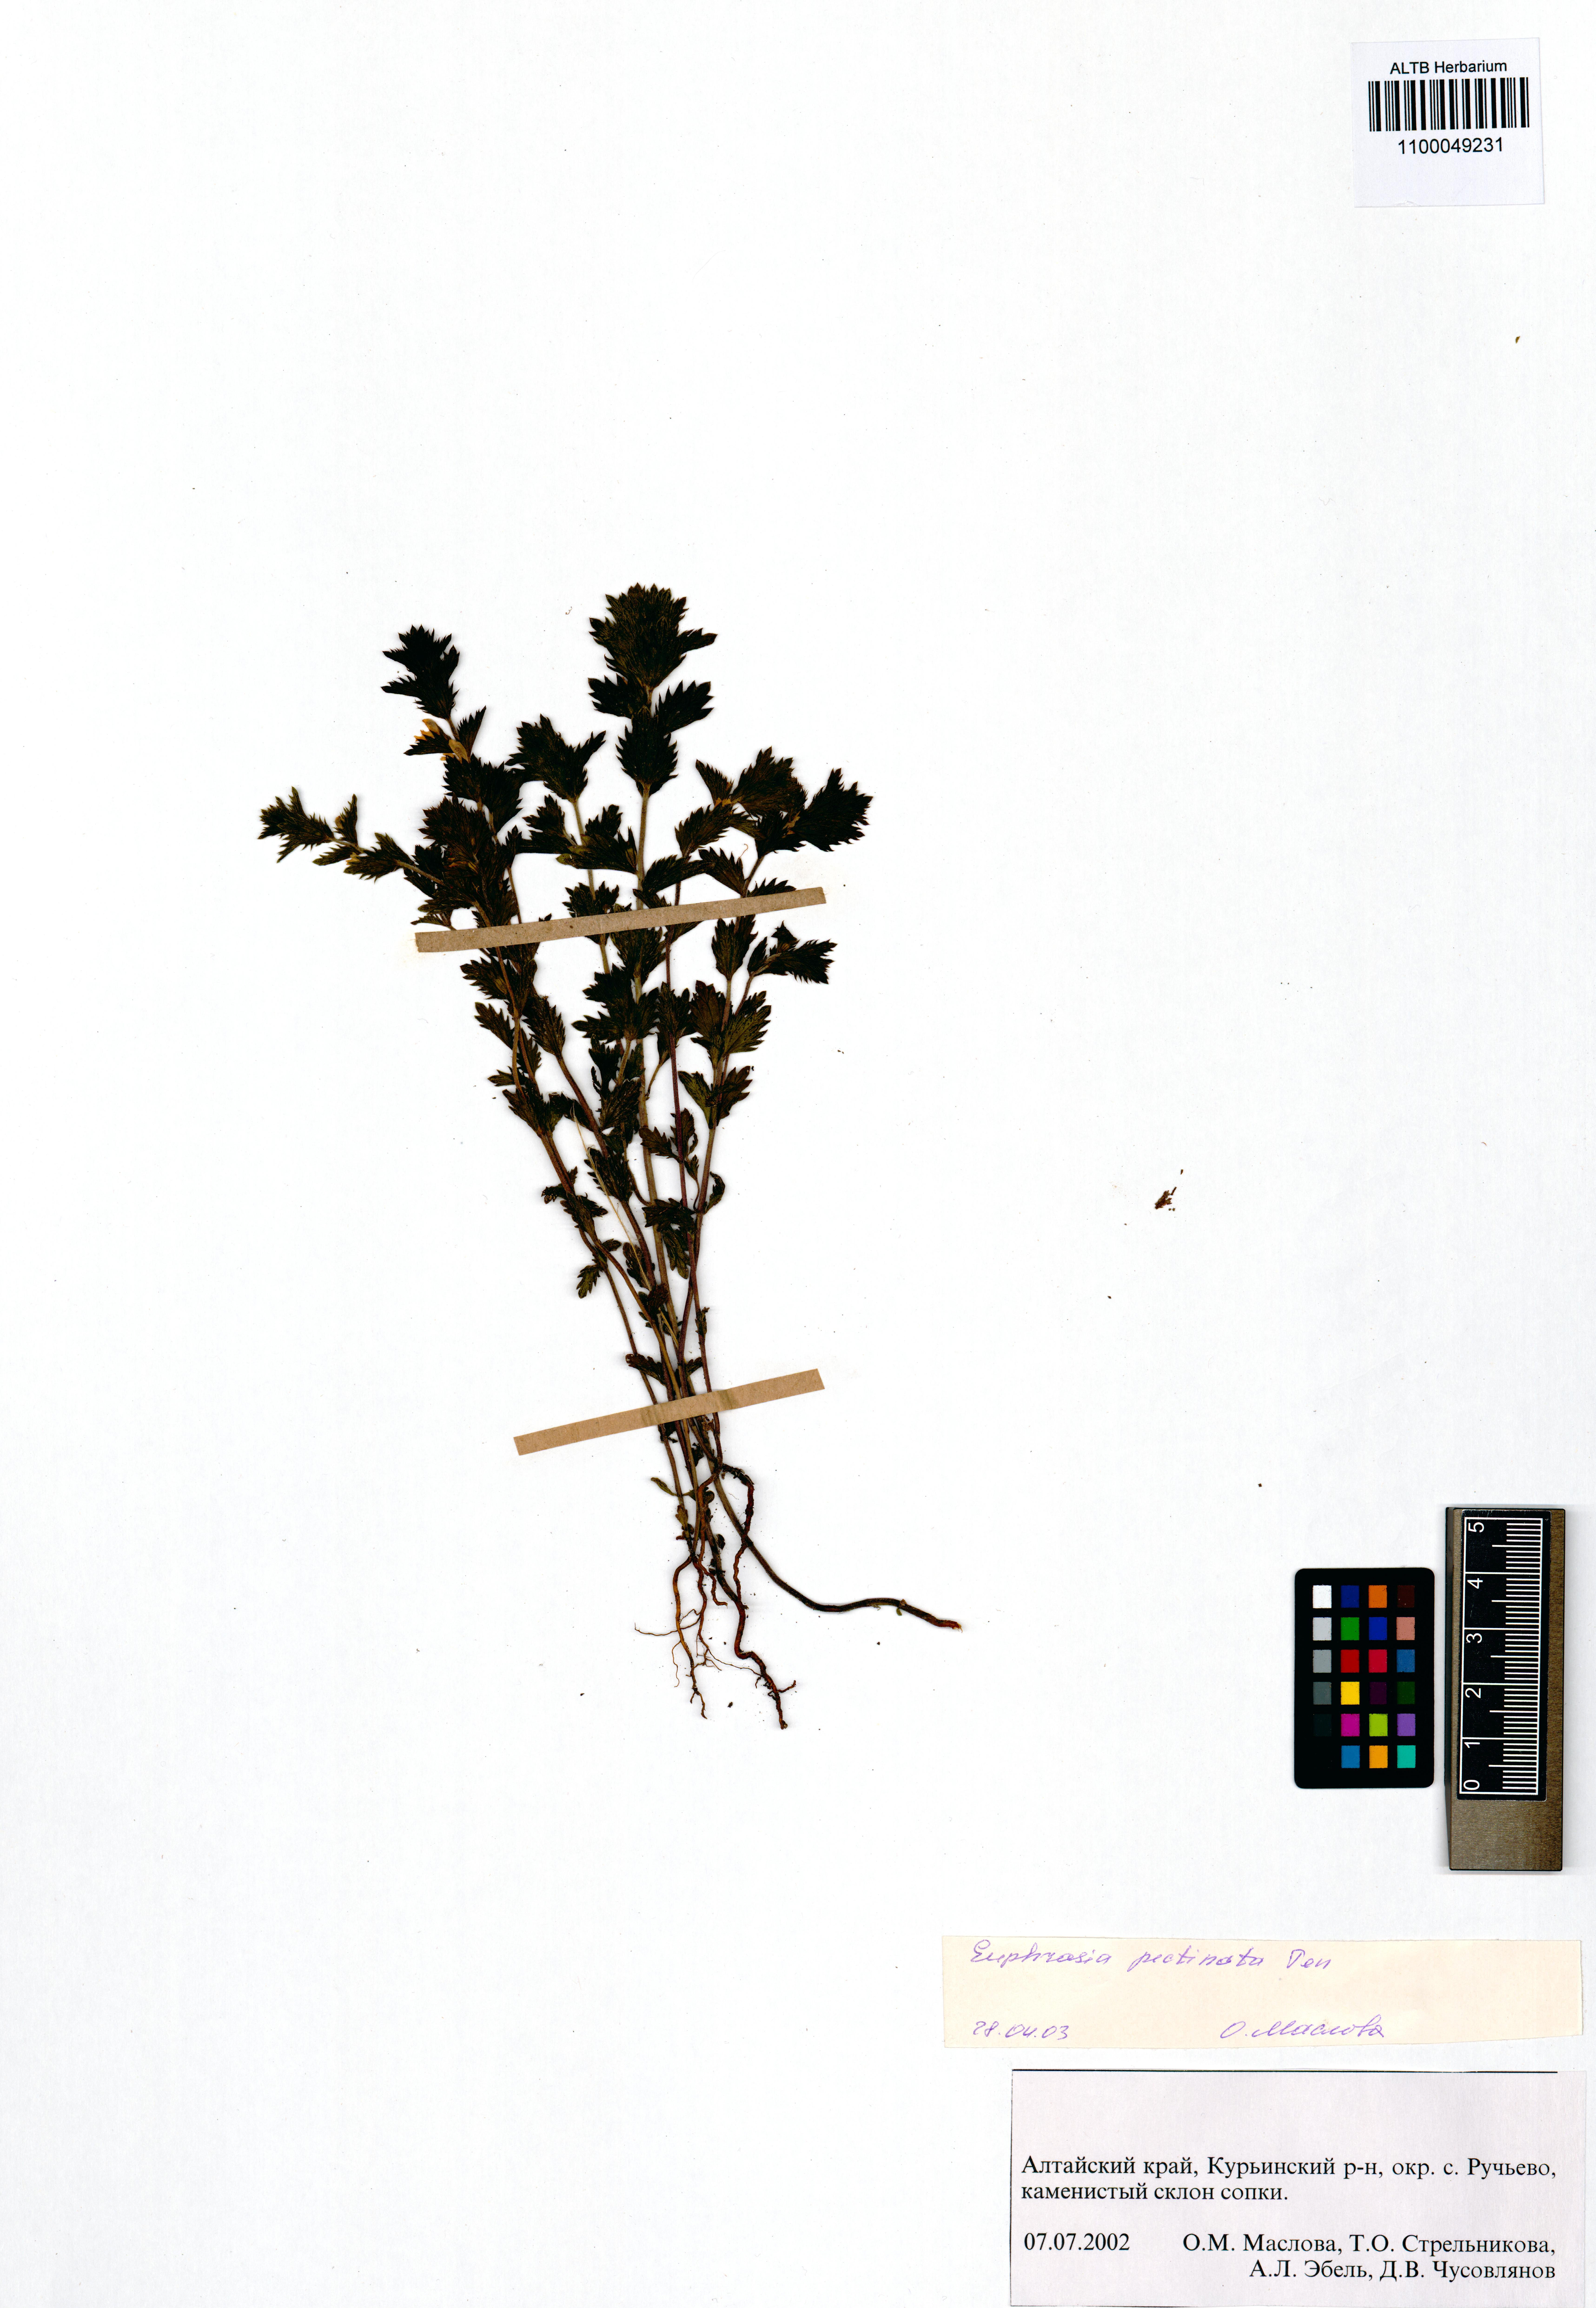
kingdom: Plantae
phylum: Tracheophyta
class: Magnoliopsida
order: Lamiales
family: Orobanchaceae
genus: Euphrasia
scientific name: Euphrasia pectinata
